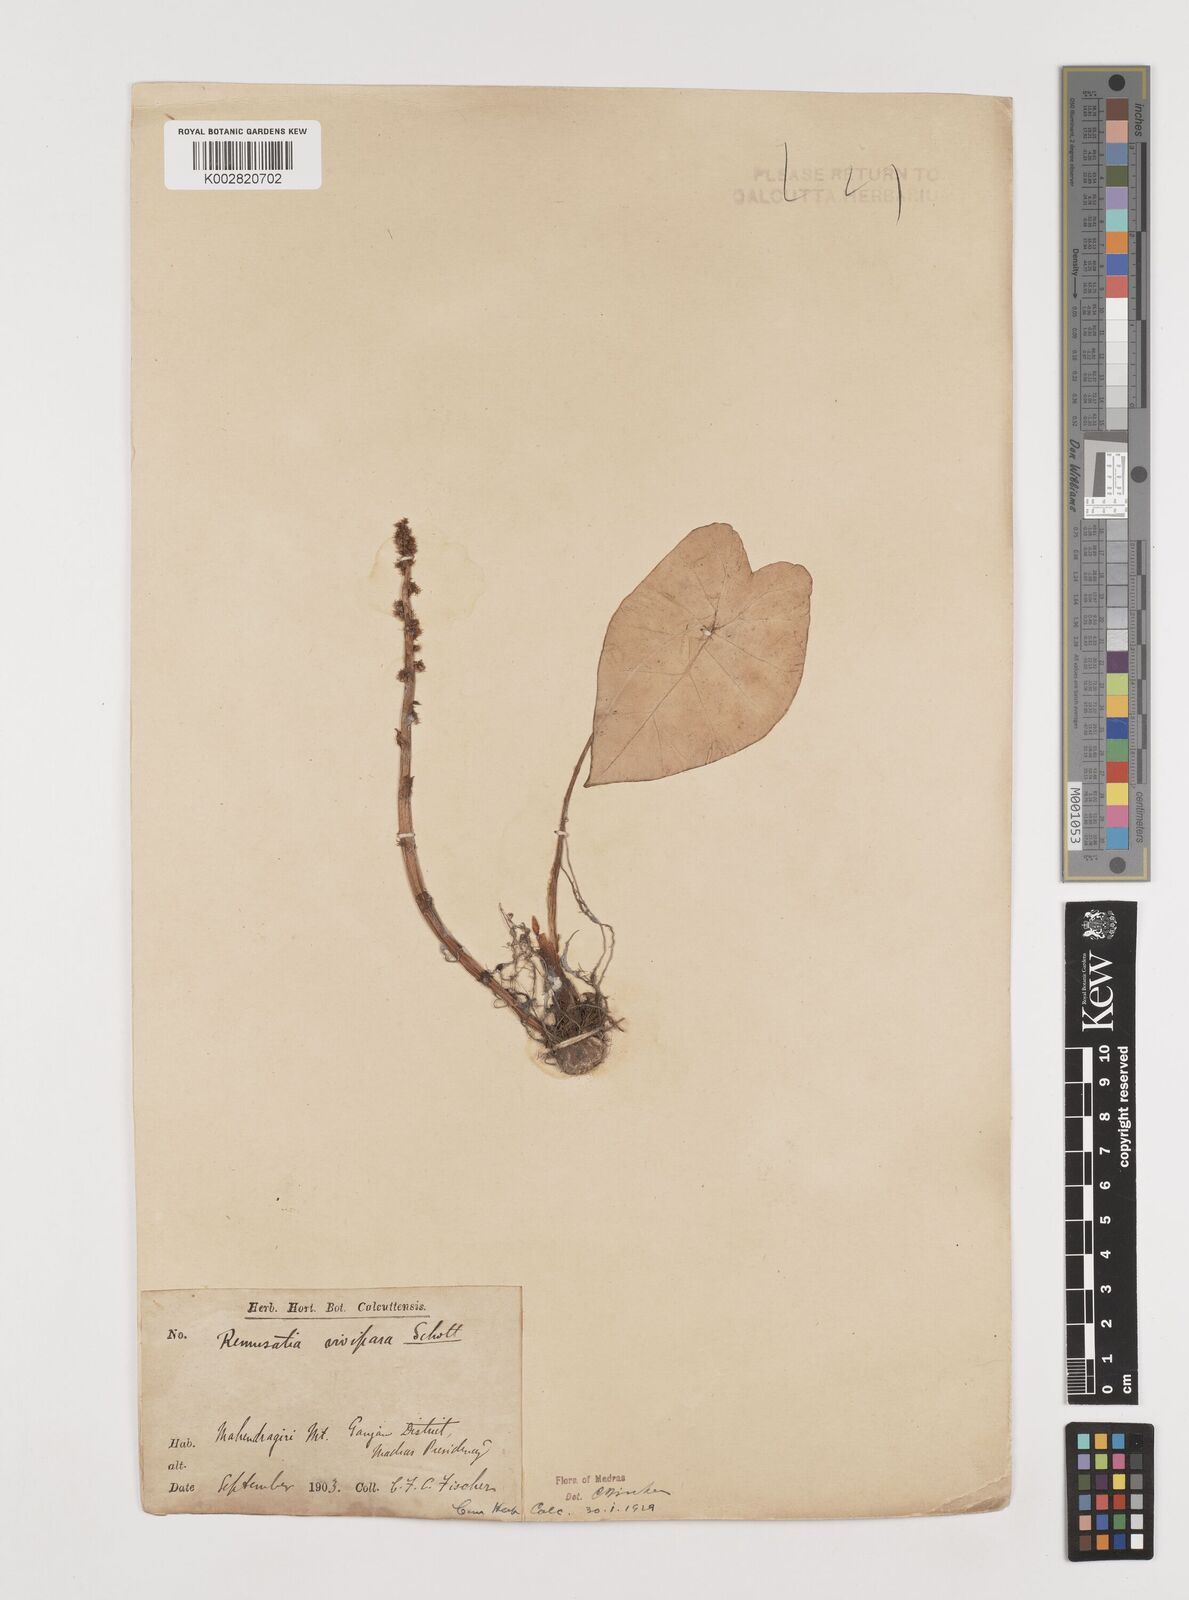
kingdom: Plantae
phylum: Tracheophyta
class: Liliopsida
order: Alismatales
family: Araceae
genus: Remusatia
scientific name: Remusatia vivipara
